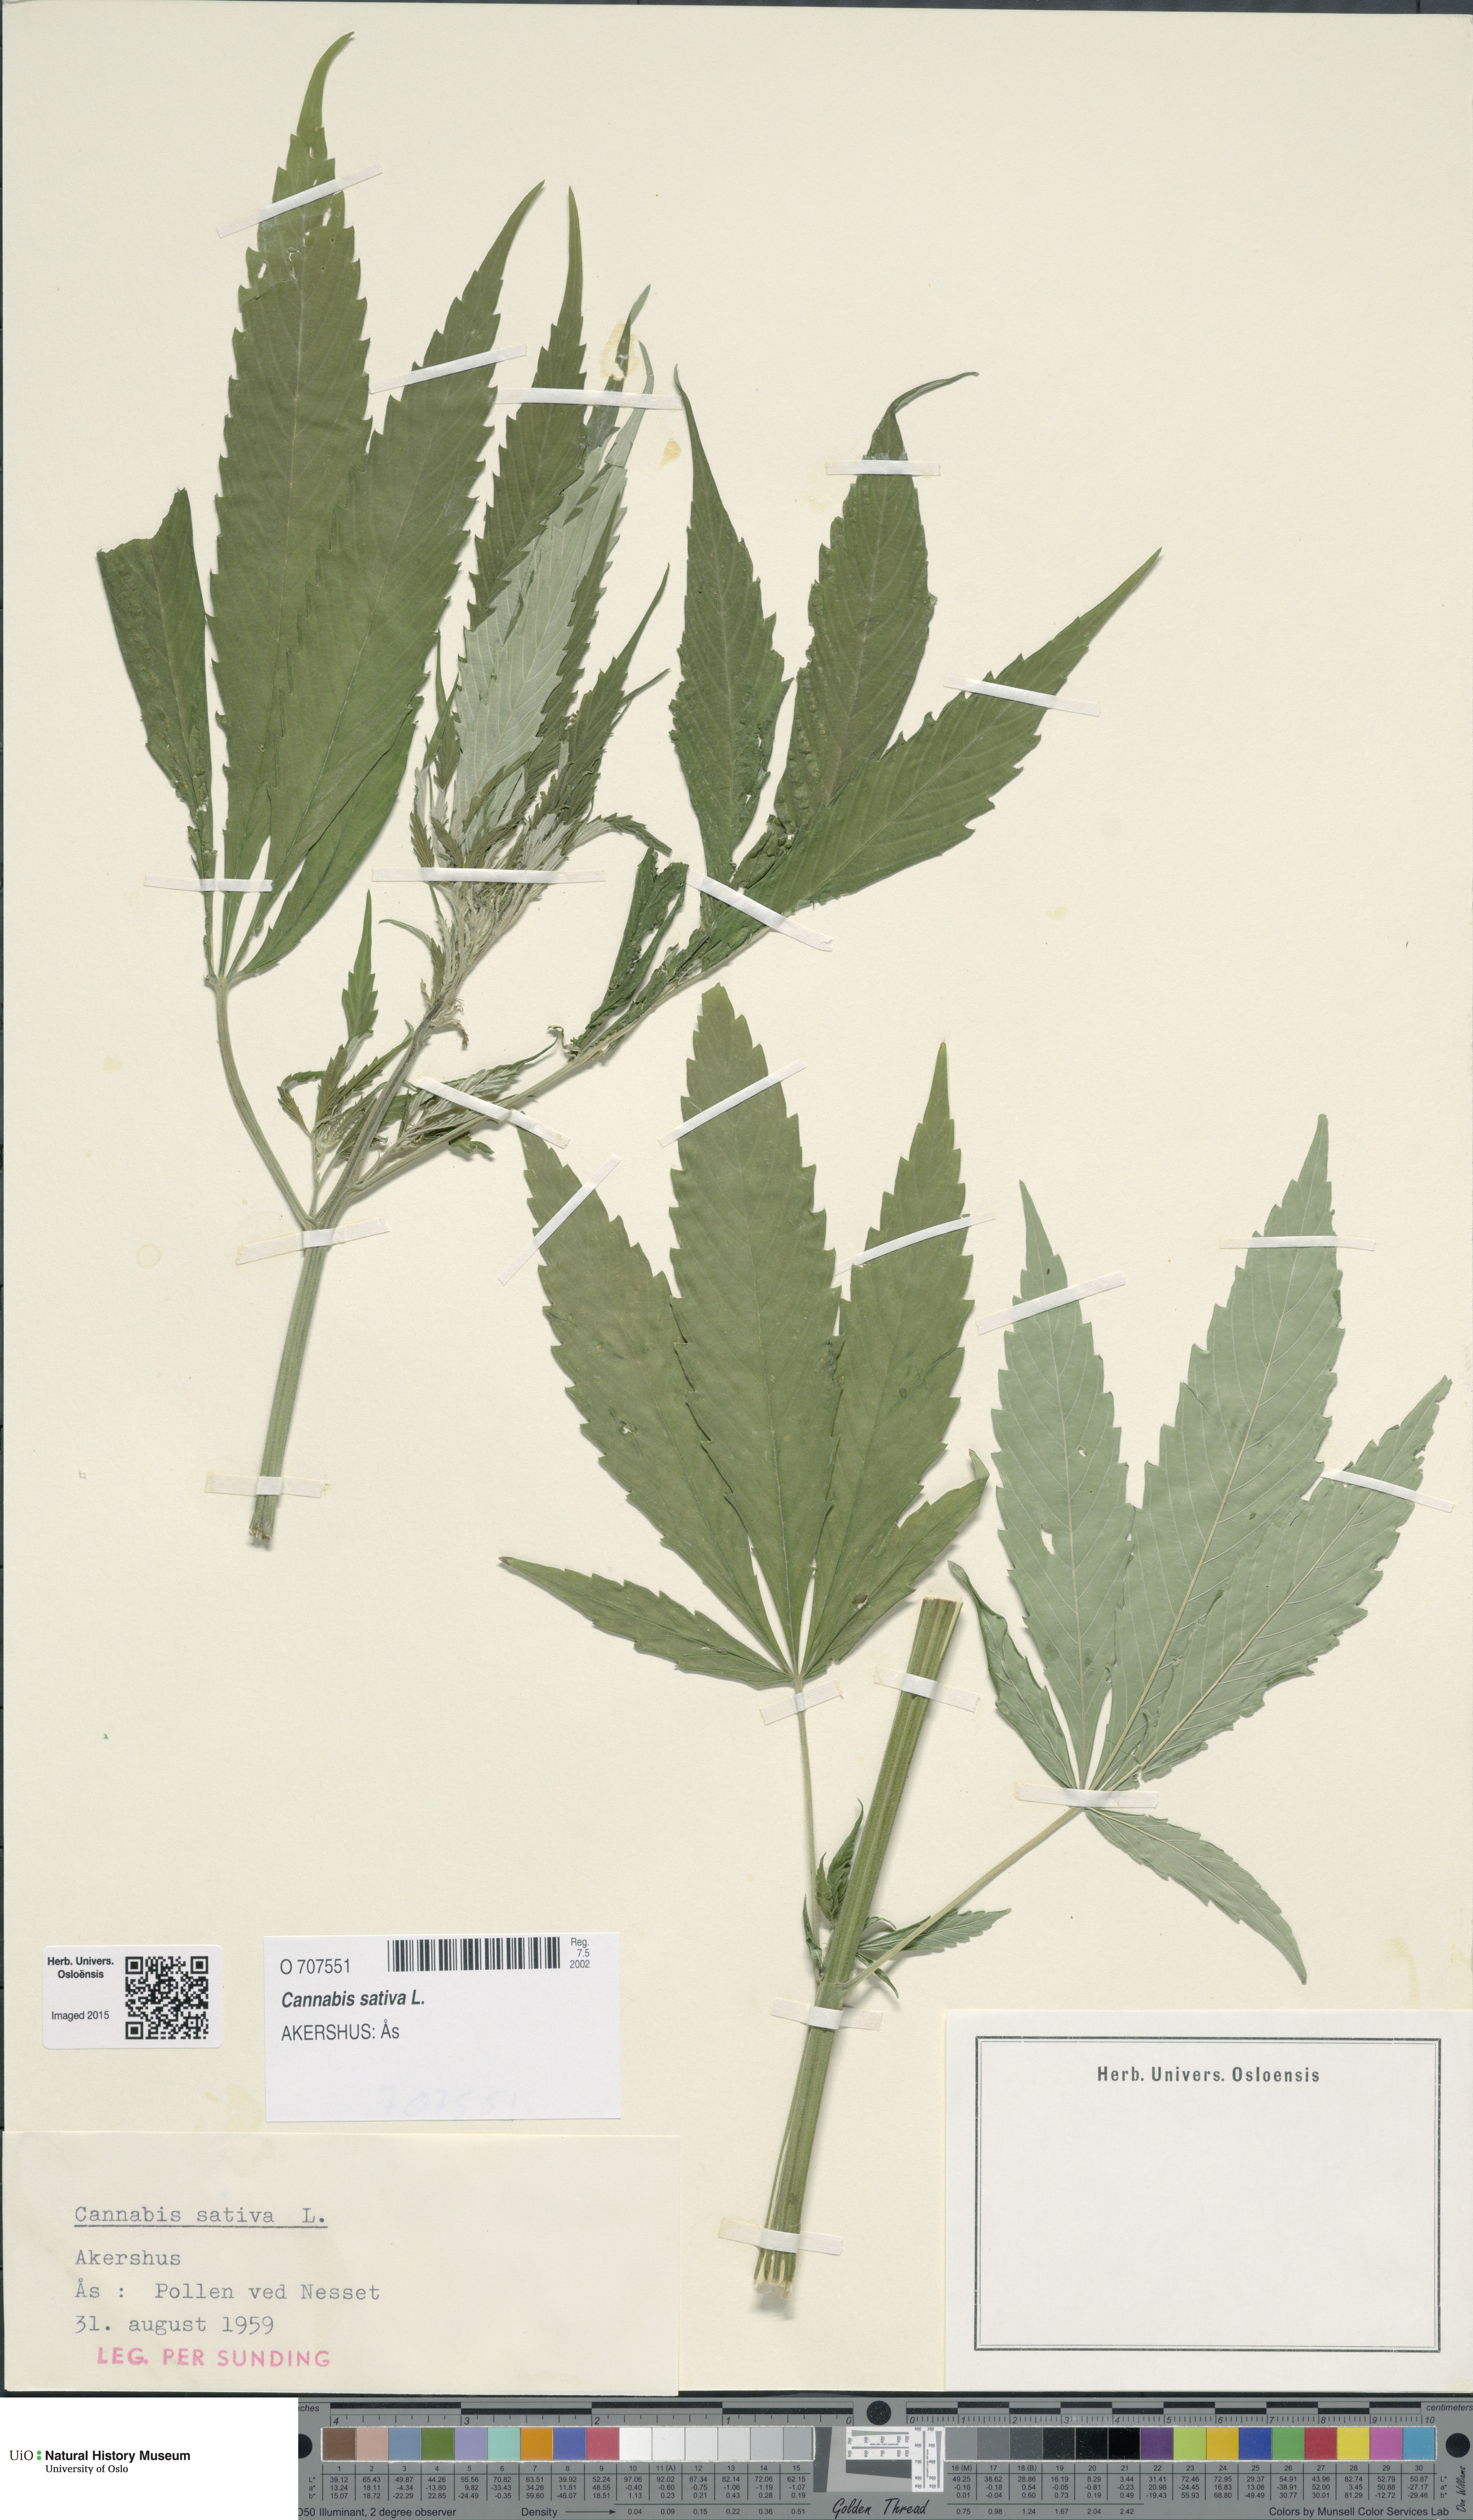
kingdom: Plantae
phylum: Tracheophyta
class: Magnoliopsida
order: Rosales
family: Cannabaceae
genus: Cannabis
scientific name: Cannabis sativa
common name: Hemp
